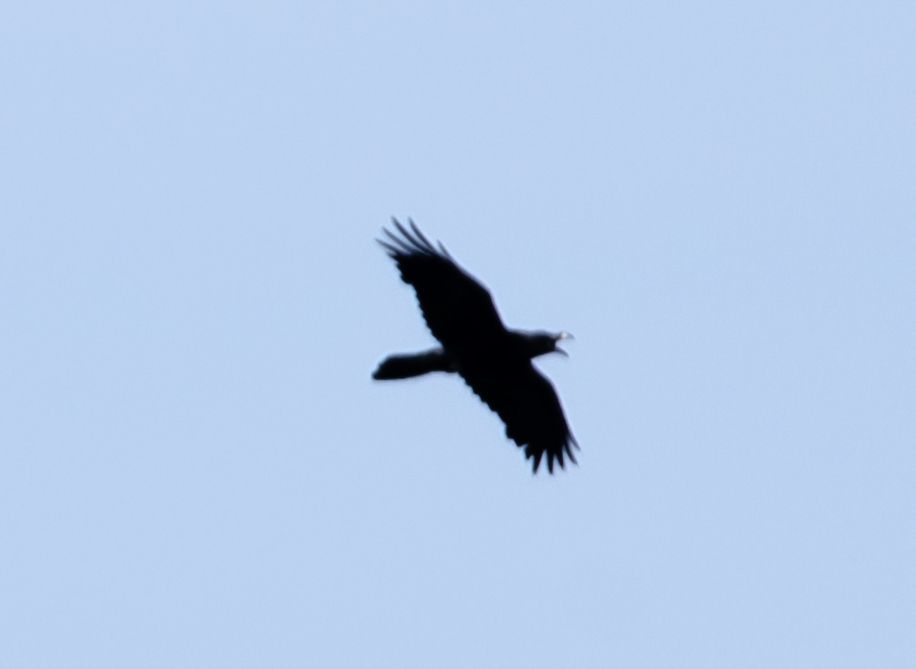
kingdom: Animalia
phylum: Chordata
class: Aves
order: Passeriformes
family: Corvidae
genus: Corvus
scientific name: Corvus corax
